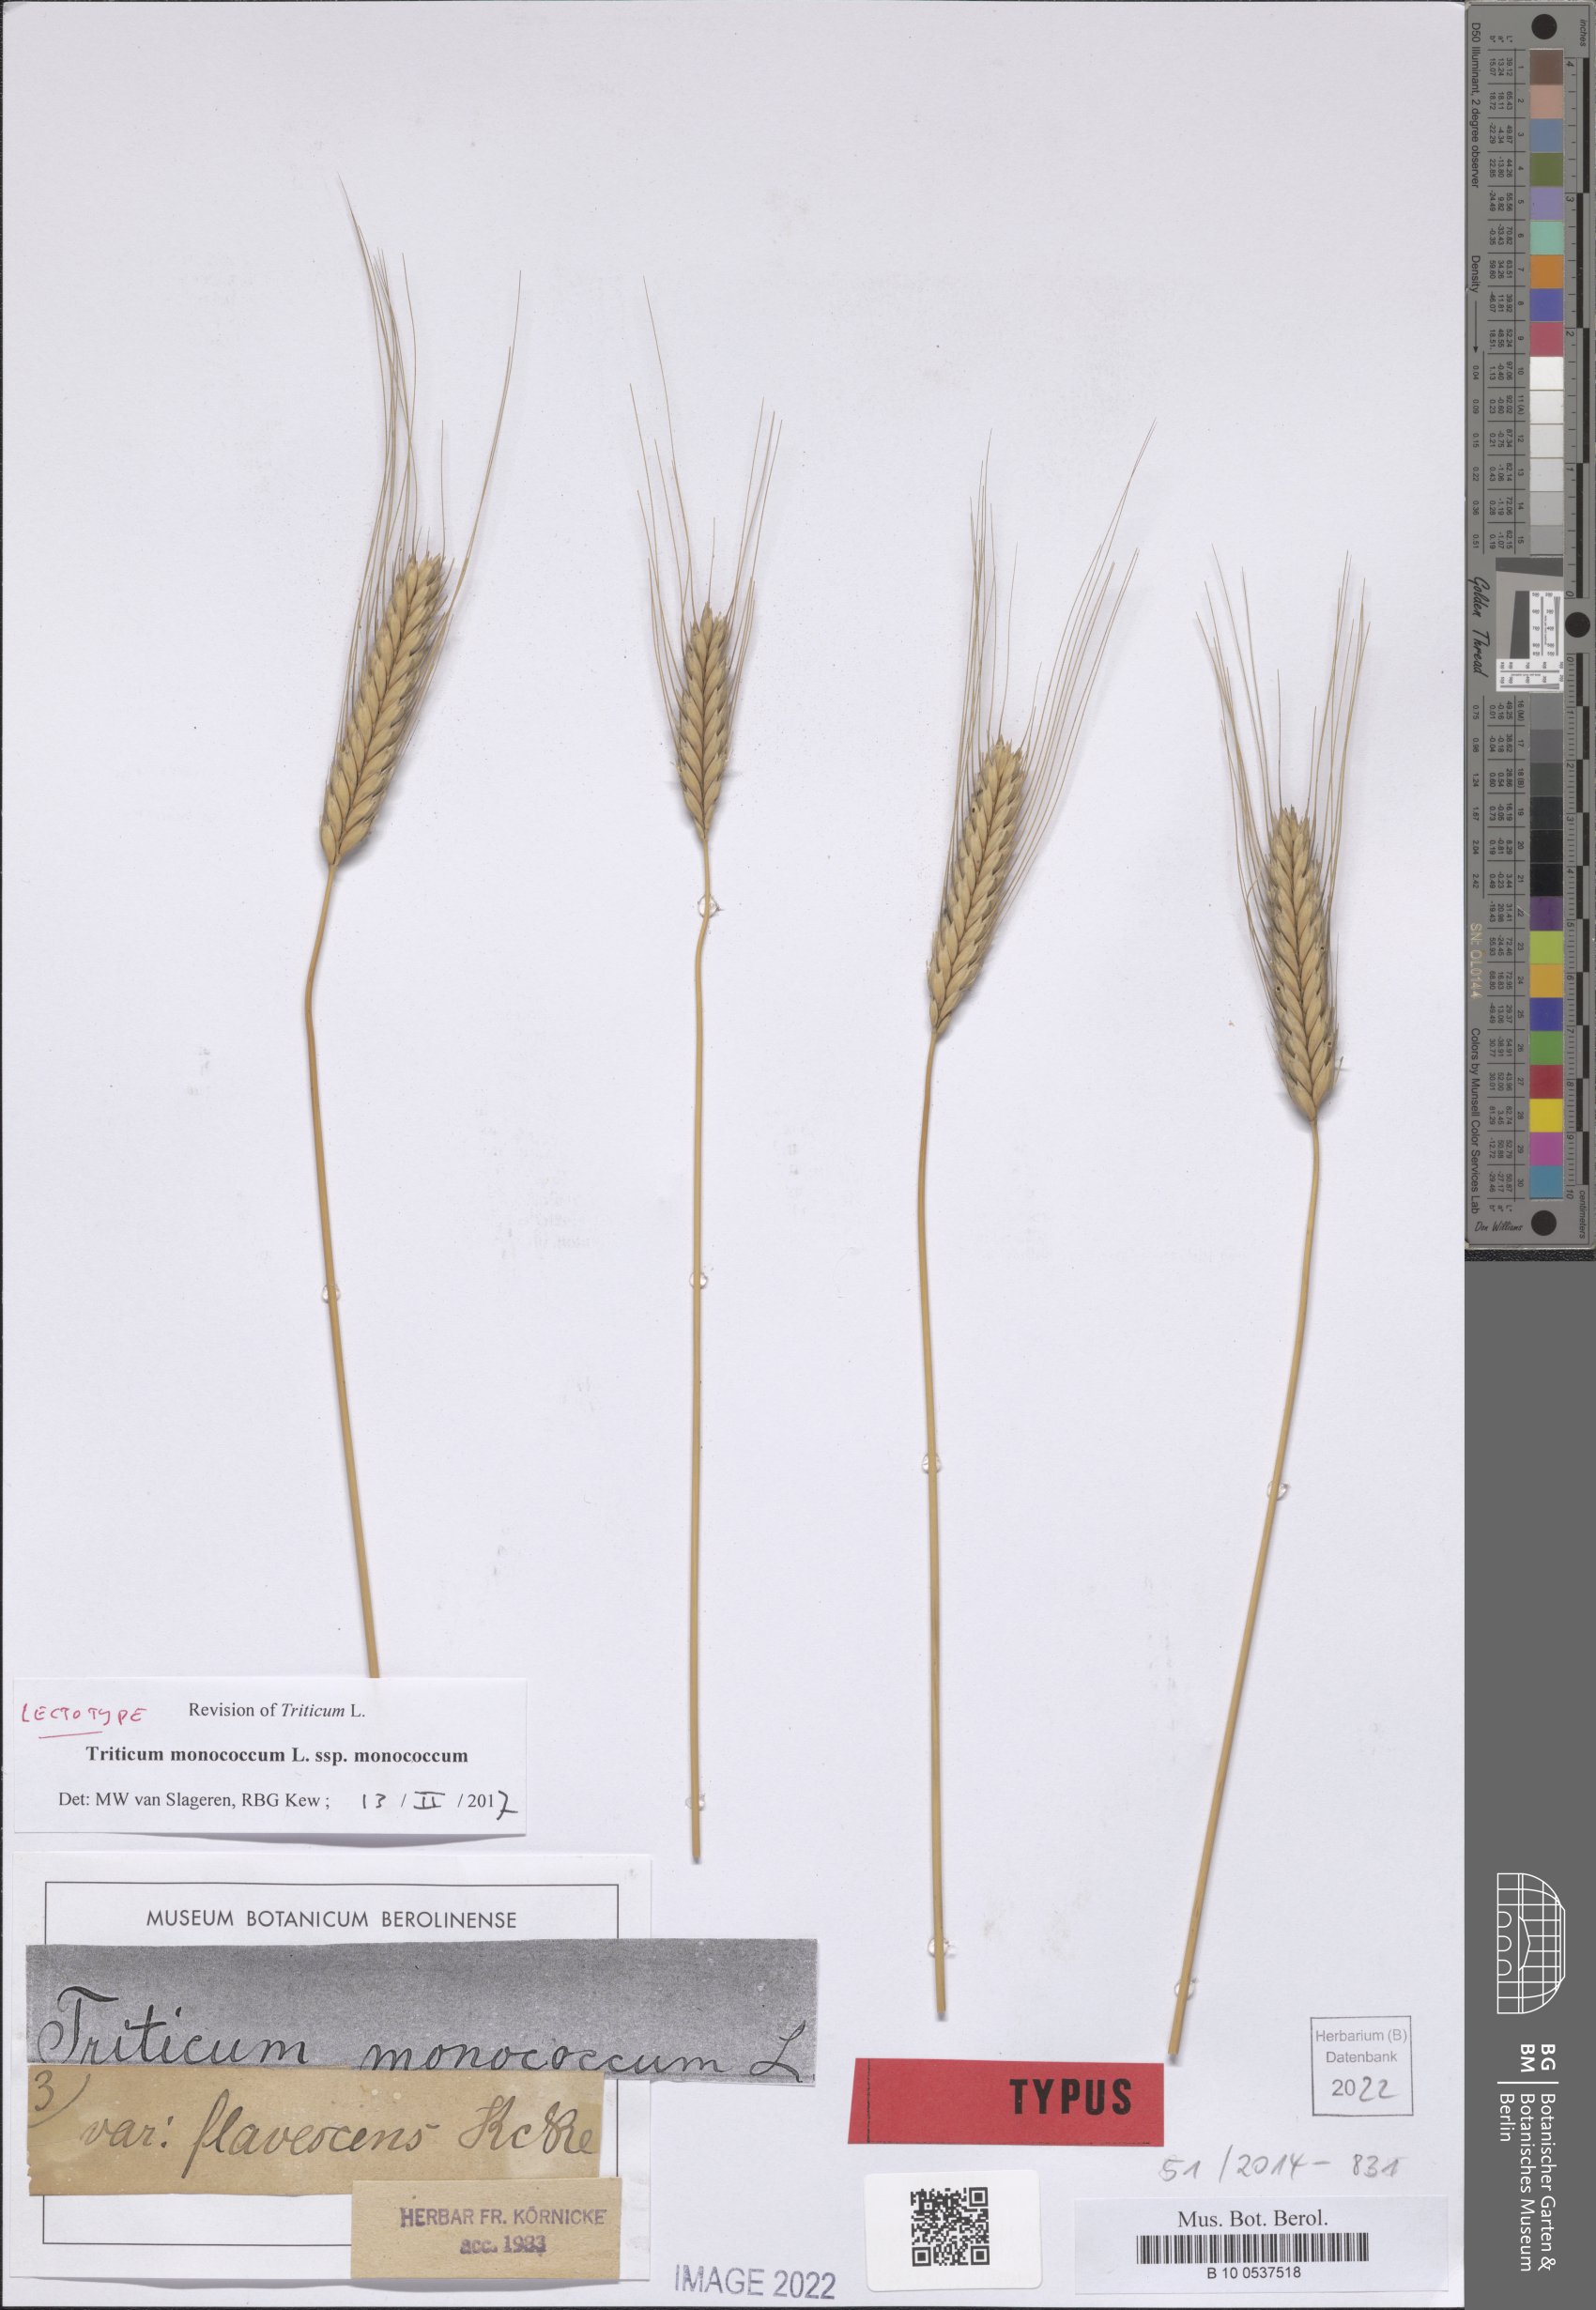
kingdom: Plantae
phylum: Tracheophyta
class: Liliopsida
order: Poales
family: Poaceae
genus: Triticum
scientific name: Triticum monococcum
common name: Einkorn
